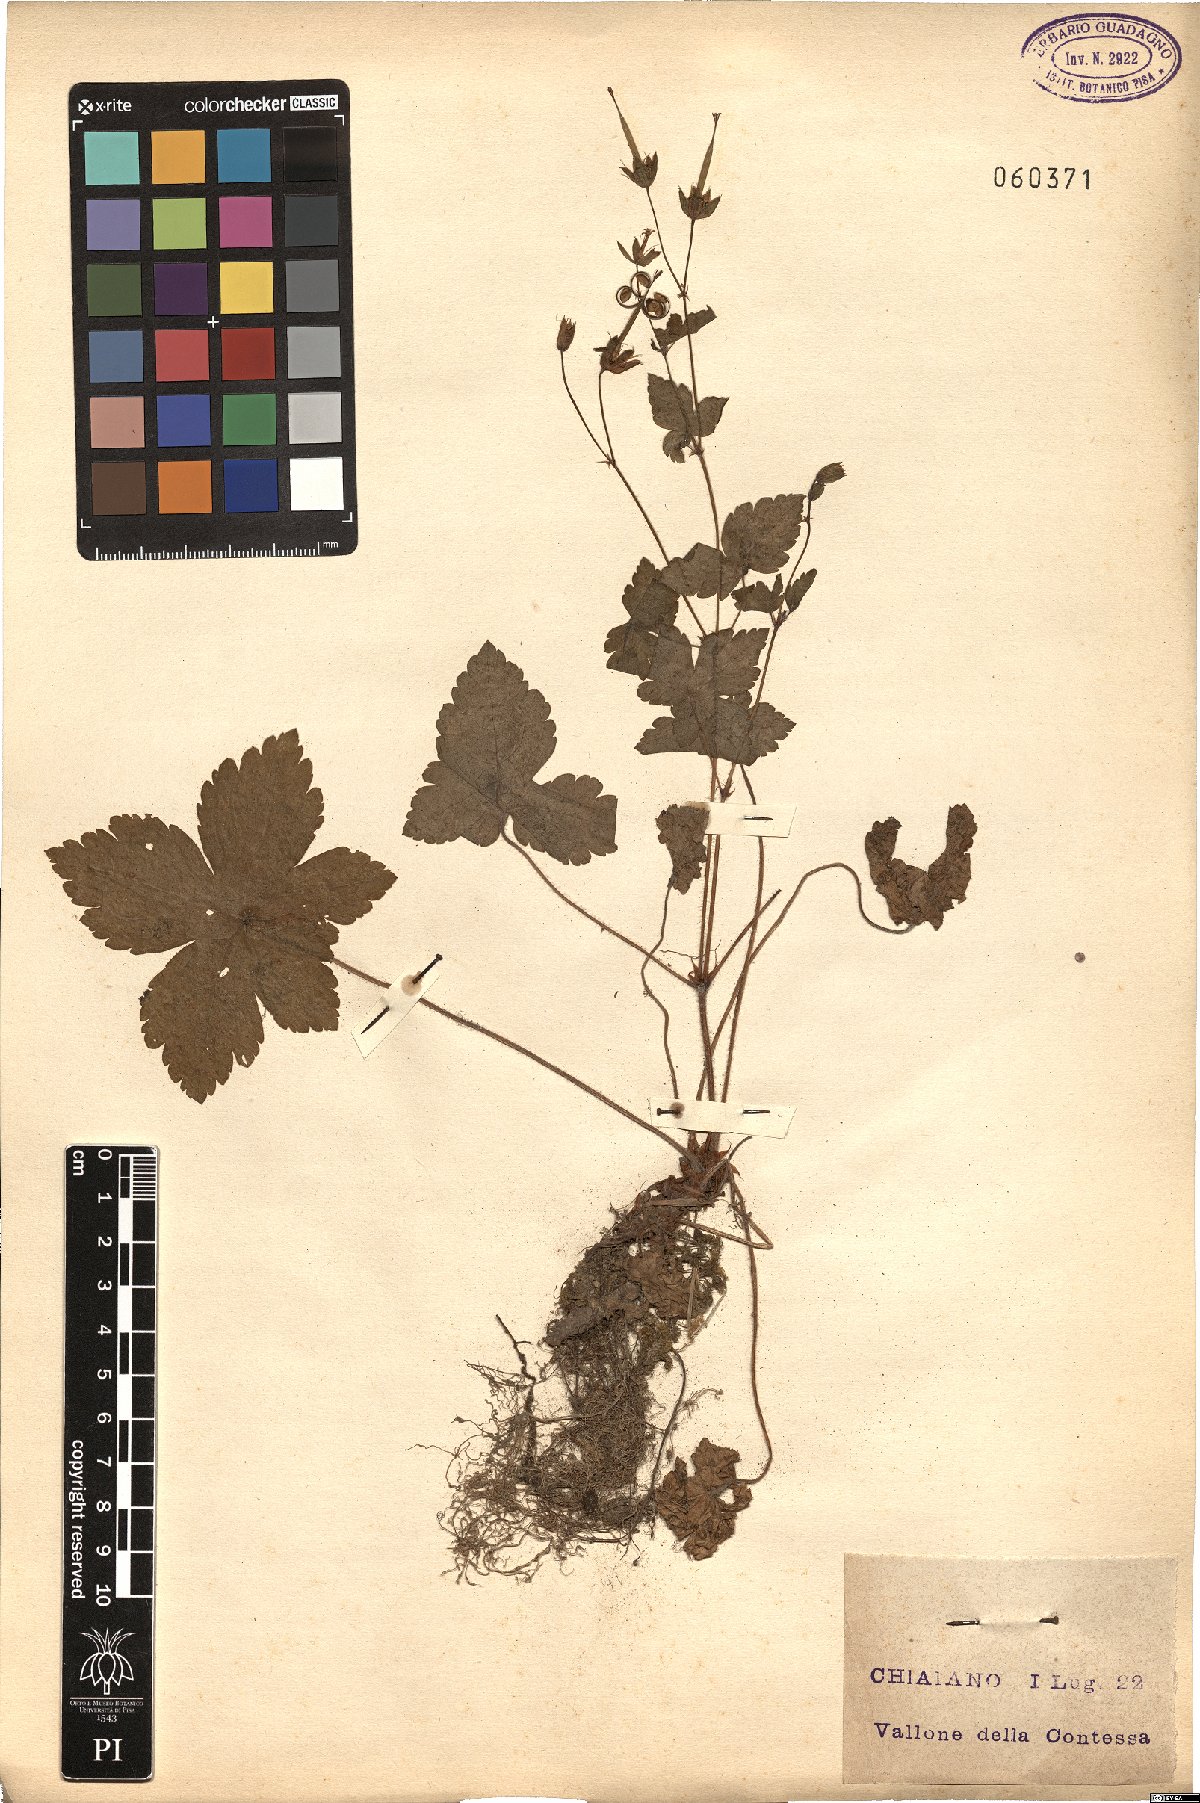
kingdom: Plantae
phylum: Tracheophyta
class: Magnoliopsida
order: Geraniales
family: Geraniaceae
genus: Geranium
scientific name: Geranium versicolor
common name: Pencilled crane's-bill
